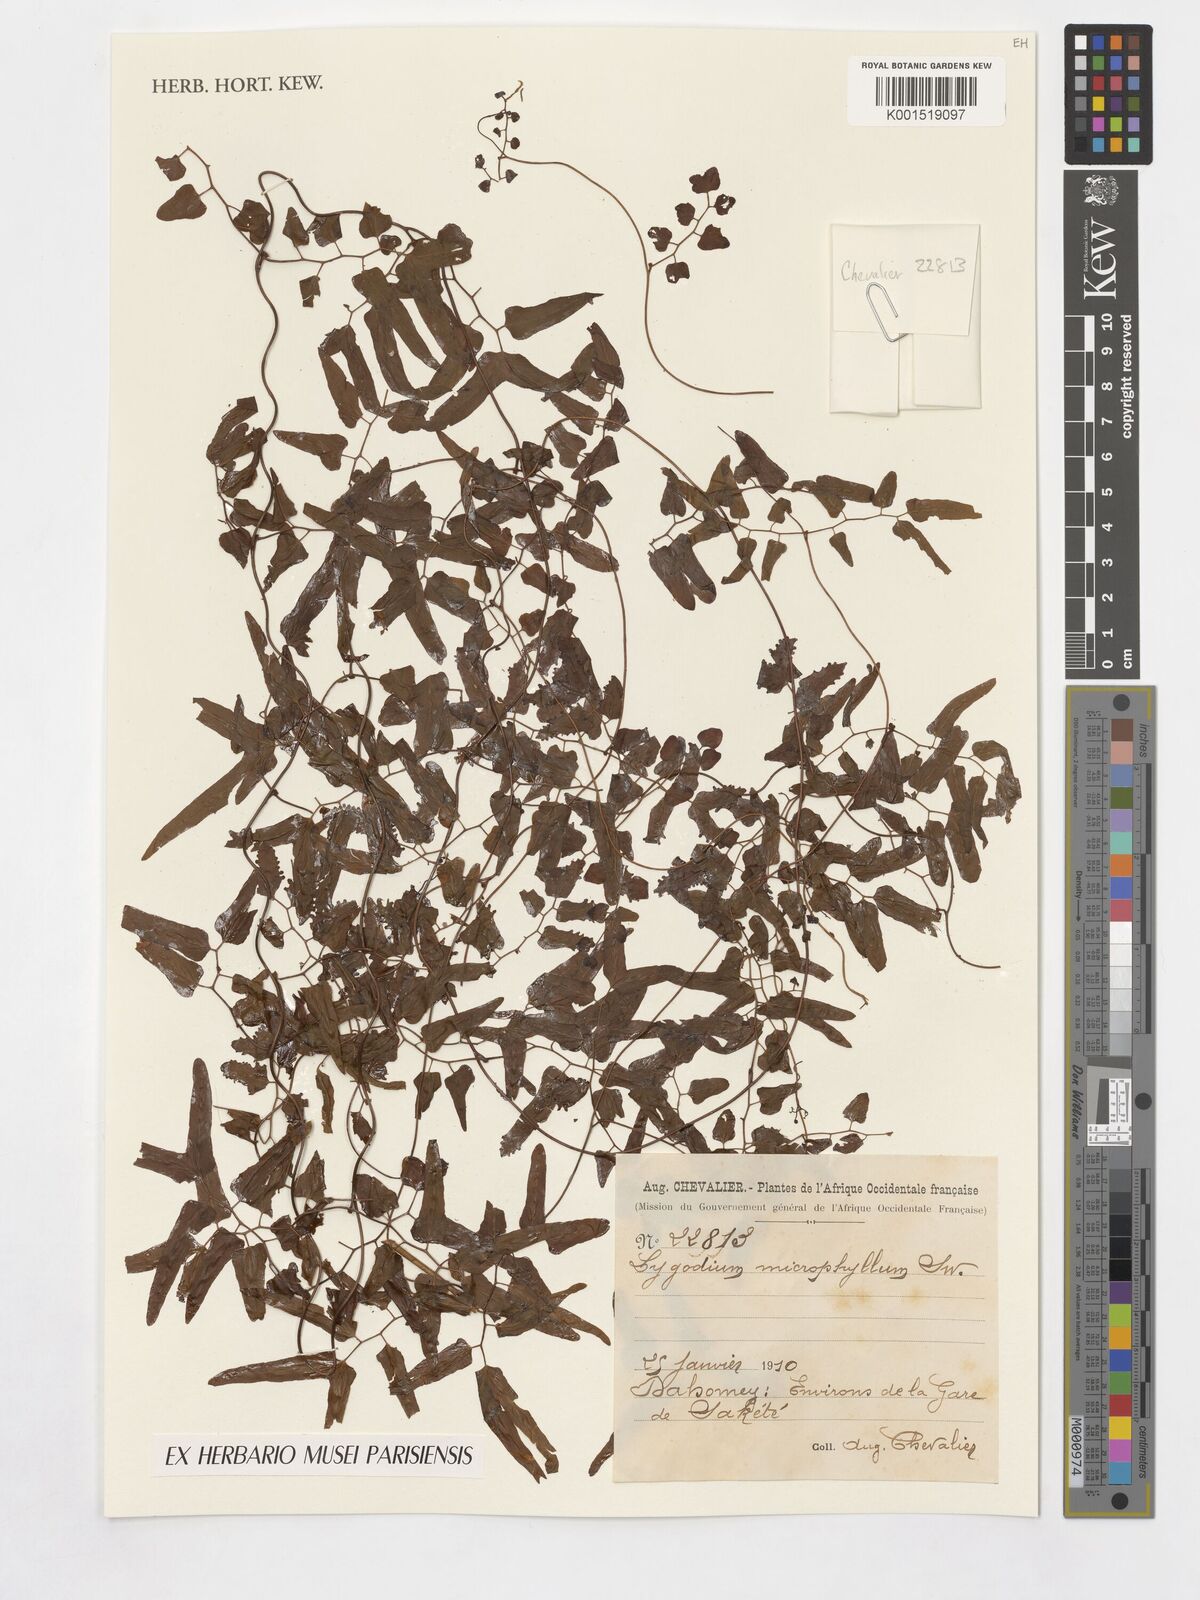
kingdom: Plantae
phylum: Tracheophyta
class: Polypodiopsida
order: Schizaeales
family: Lygodiaceae
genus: Lygodium
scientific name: Lygodium microphyllum
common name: Small-leaf climbing fern
